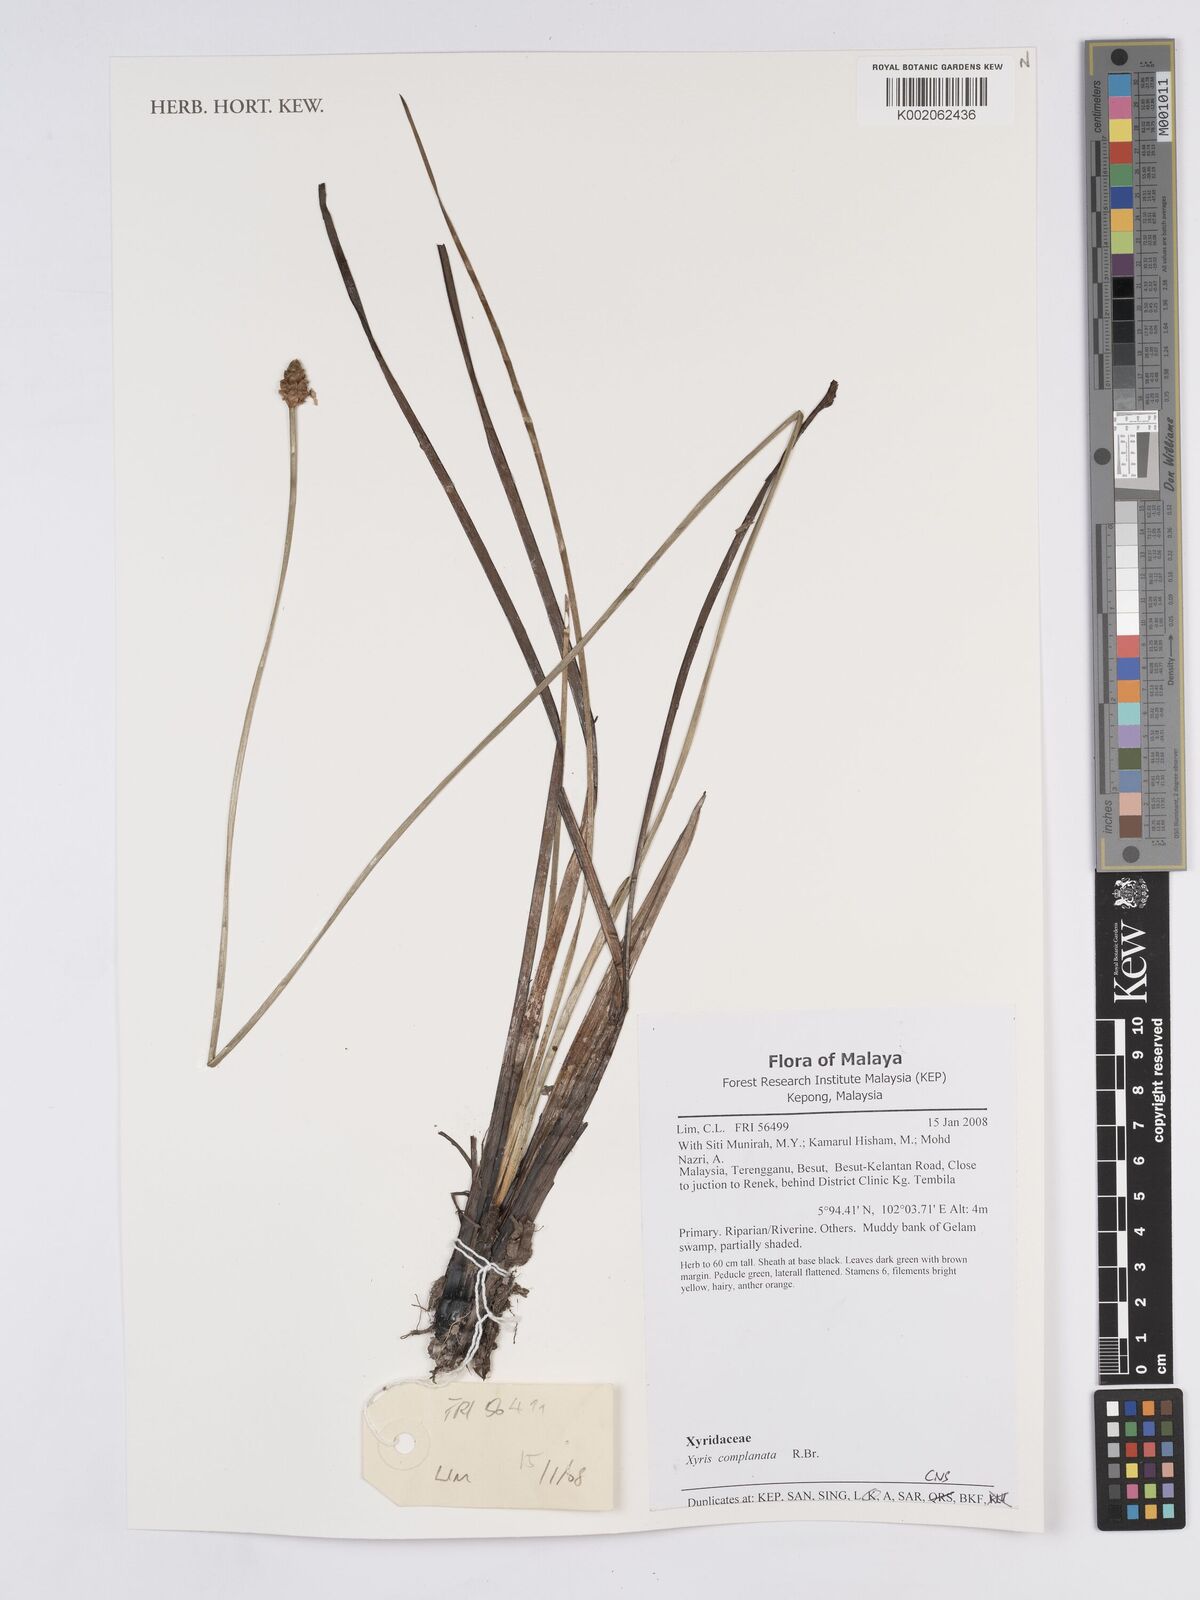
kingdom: Plantae
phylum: Tracheophyta
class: Liliopsida
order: Poales
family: Xyridaceae
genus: Xyris
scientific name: Xyris complanata
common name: Hawai'i yelloweyed grass
